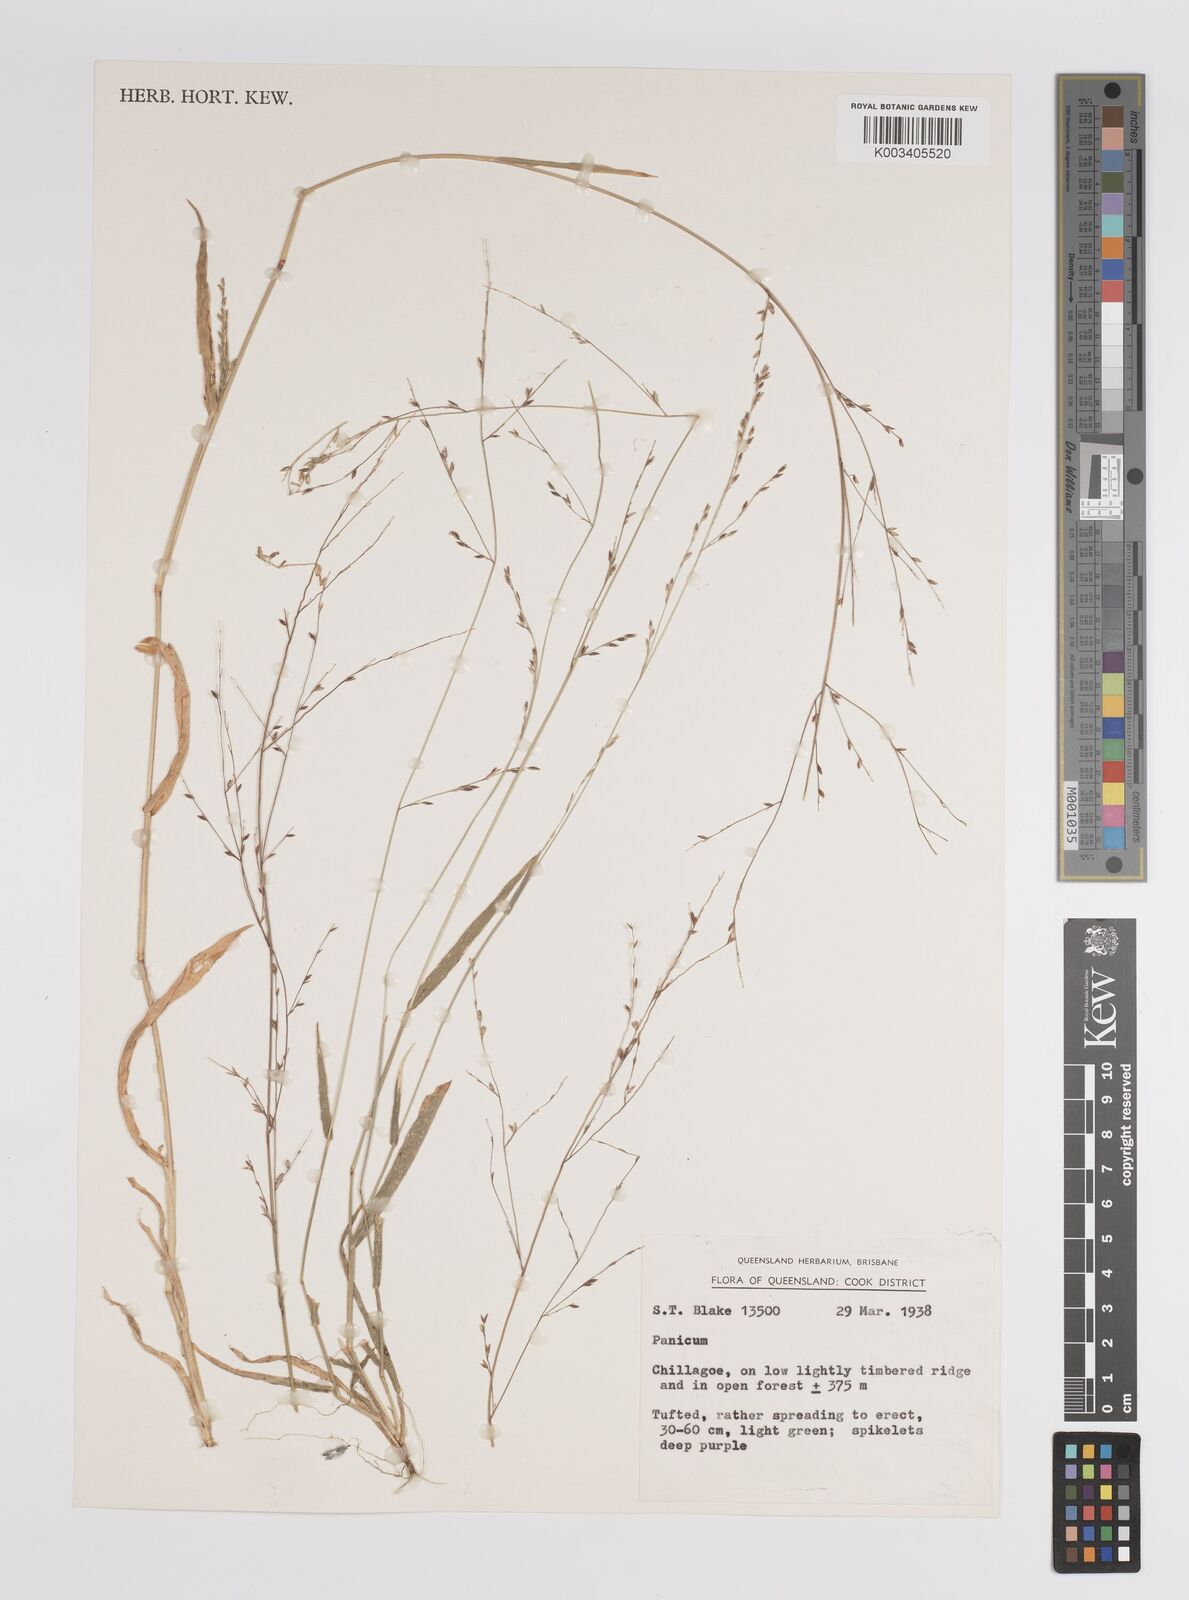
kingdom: Plantae
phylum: Tracheophyta
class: Liliopsida
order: Poales
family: Poaceae
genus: Panicum
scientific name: Panicum
